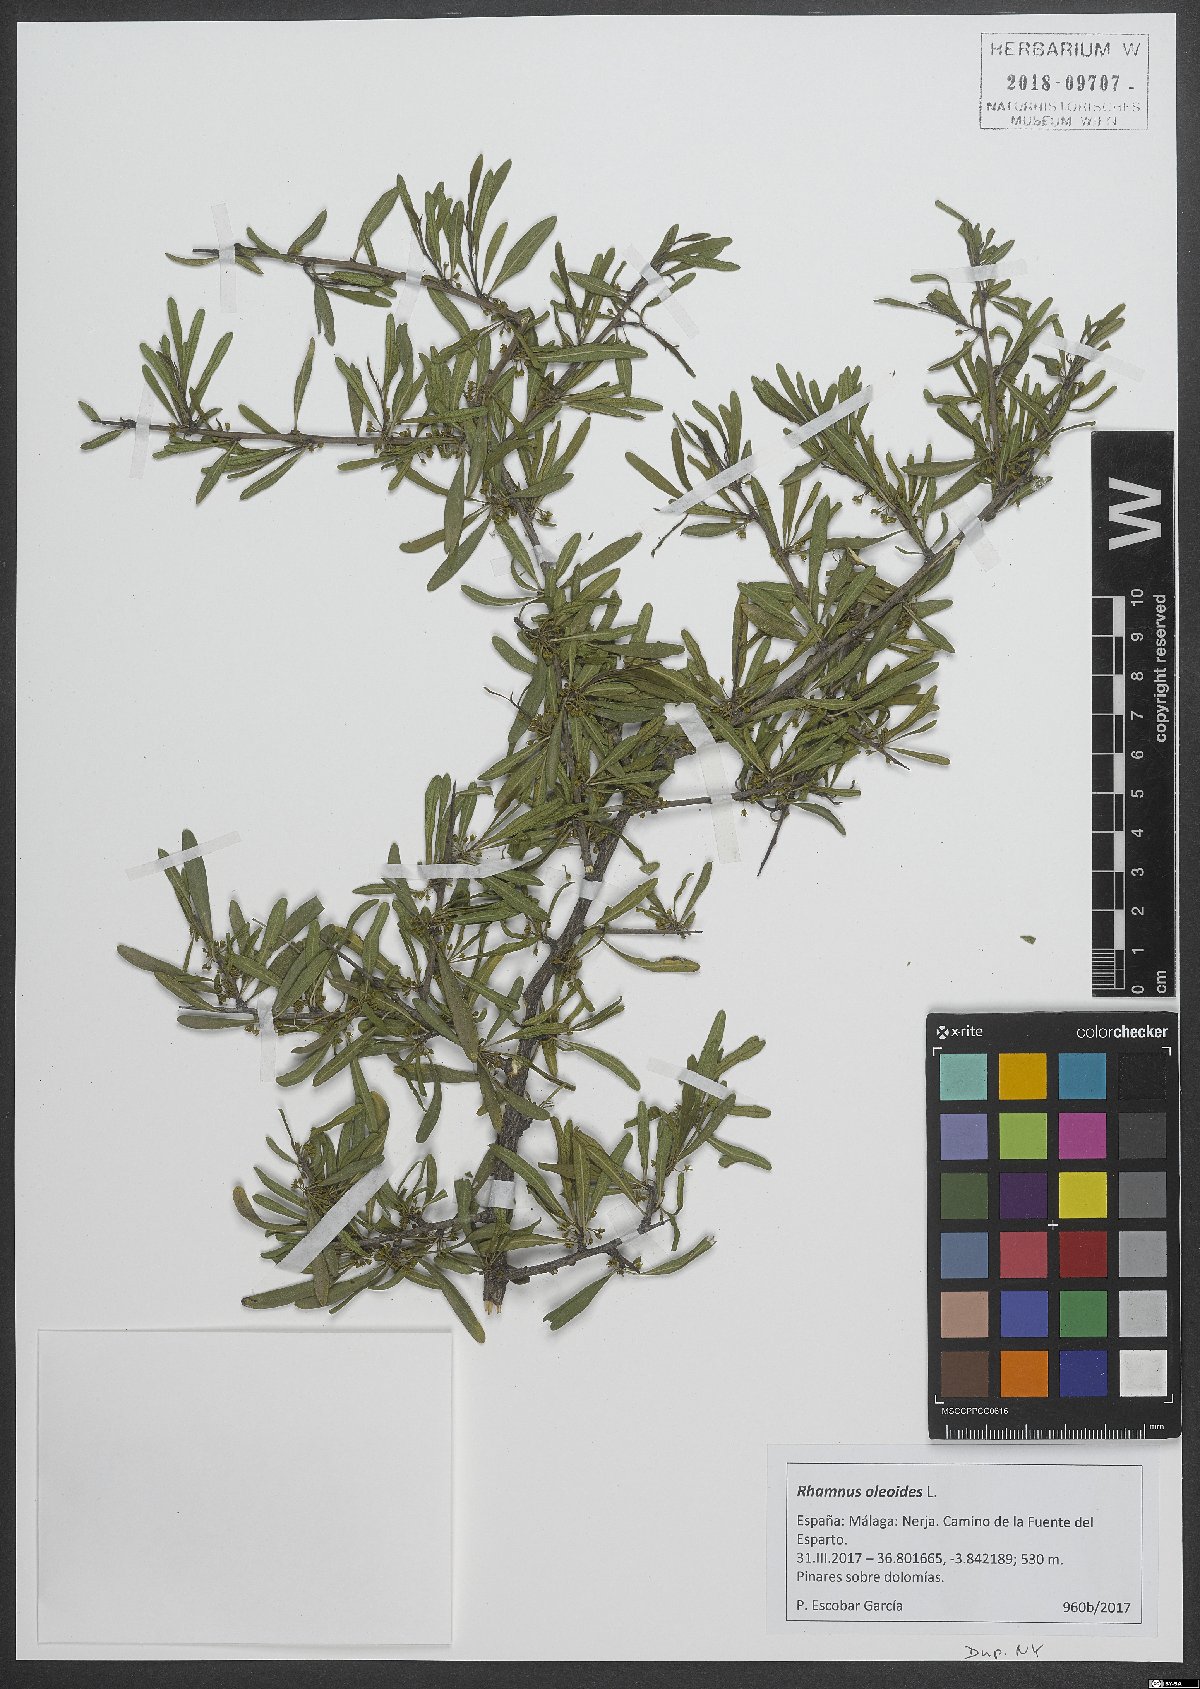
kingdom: Plantae
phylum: Tracheophyta
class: Magnoliopsida
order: Rosales
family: Rhamnaceae
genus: Rhamnus
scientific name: Rhamnus oleoides
